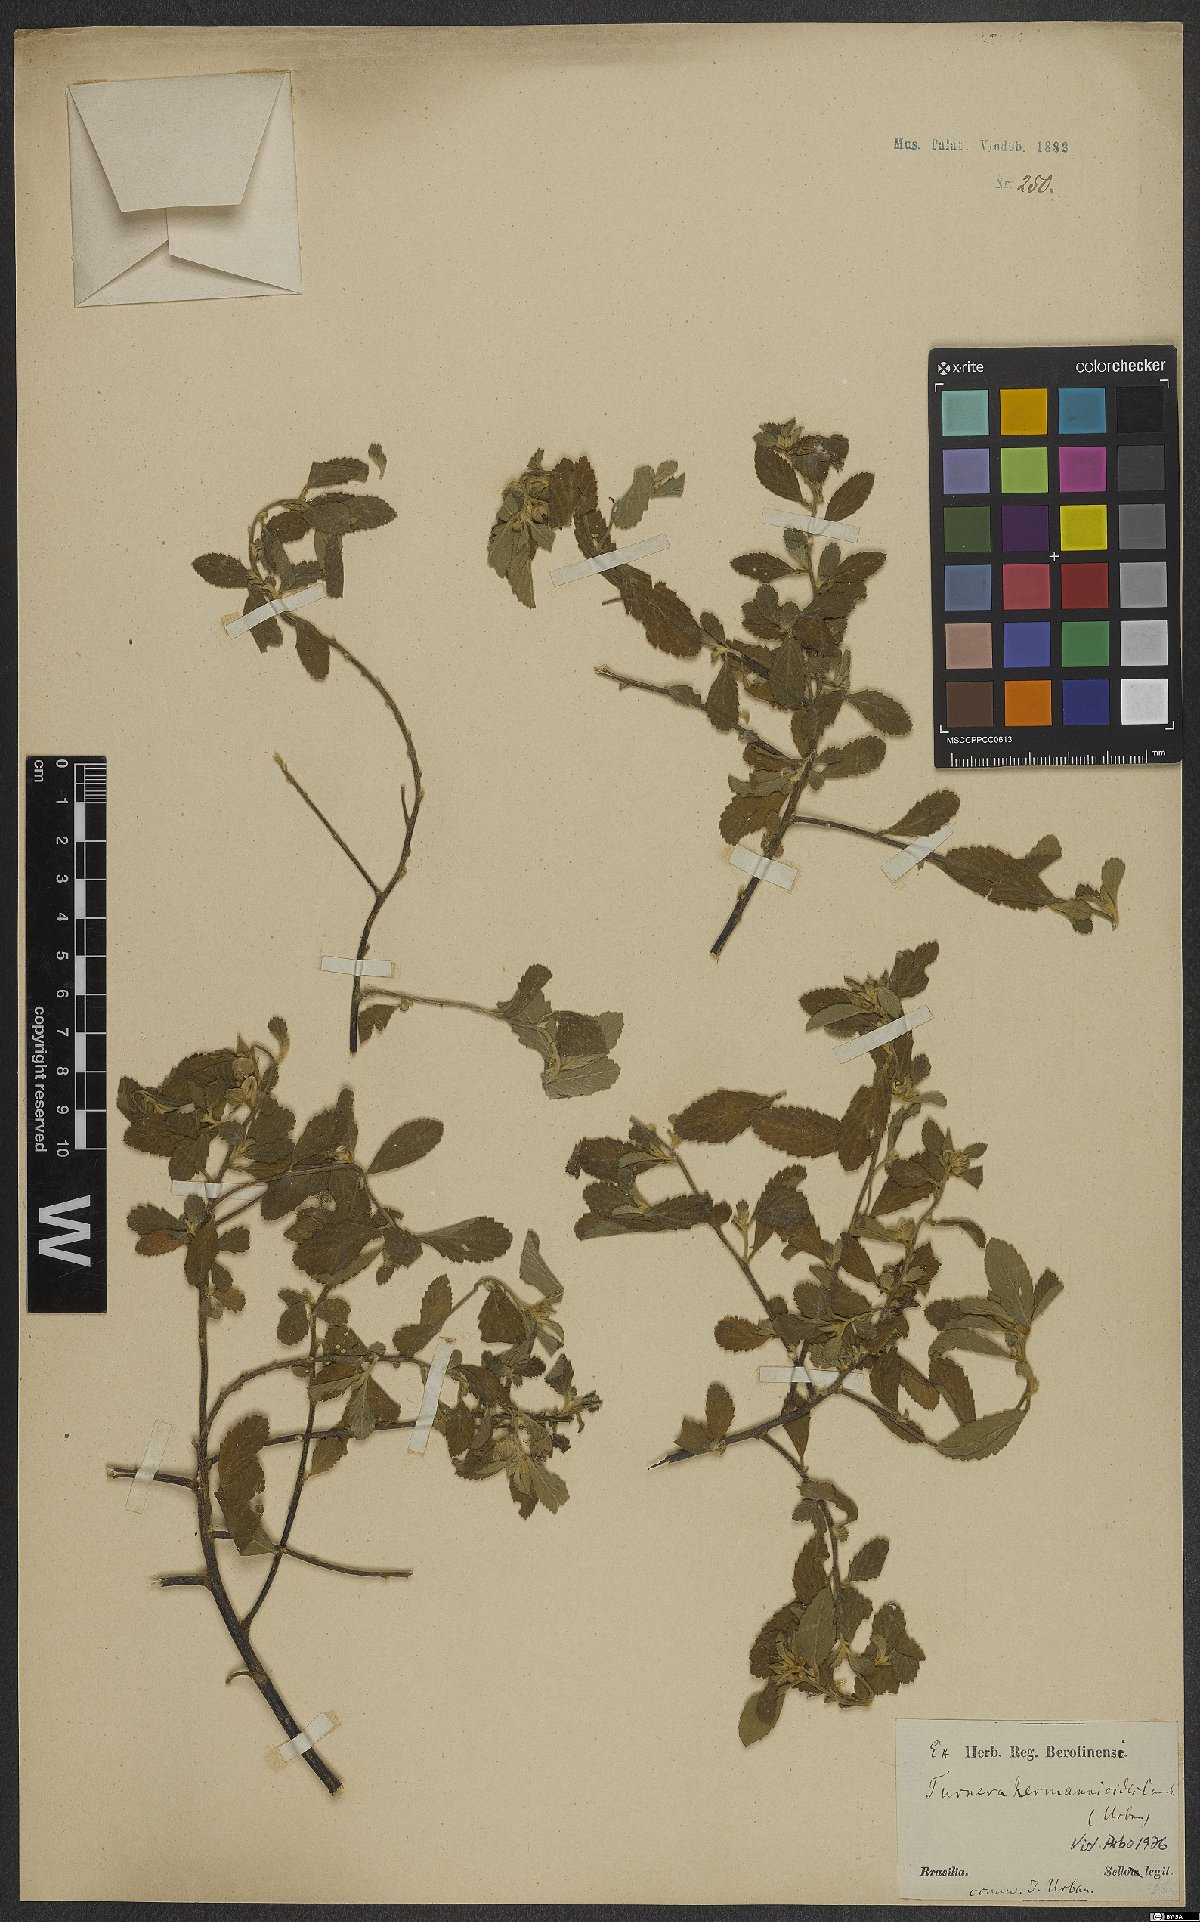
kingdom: Plantae
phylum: Tracheophyta
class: Magnoliopsida
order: Malpighiales
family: Turneraceae
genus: Turnera
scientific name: Turnera hermannioides
